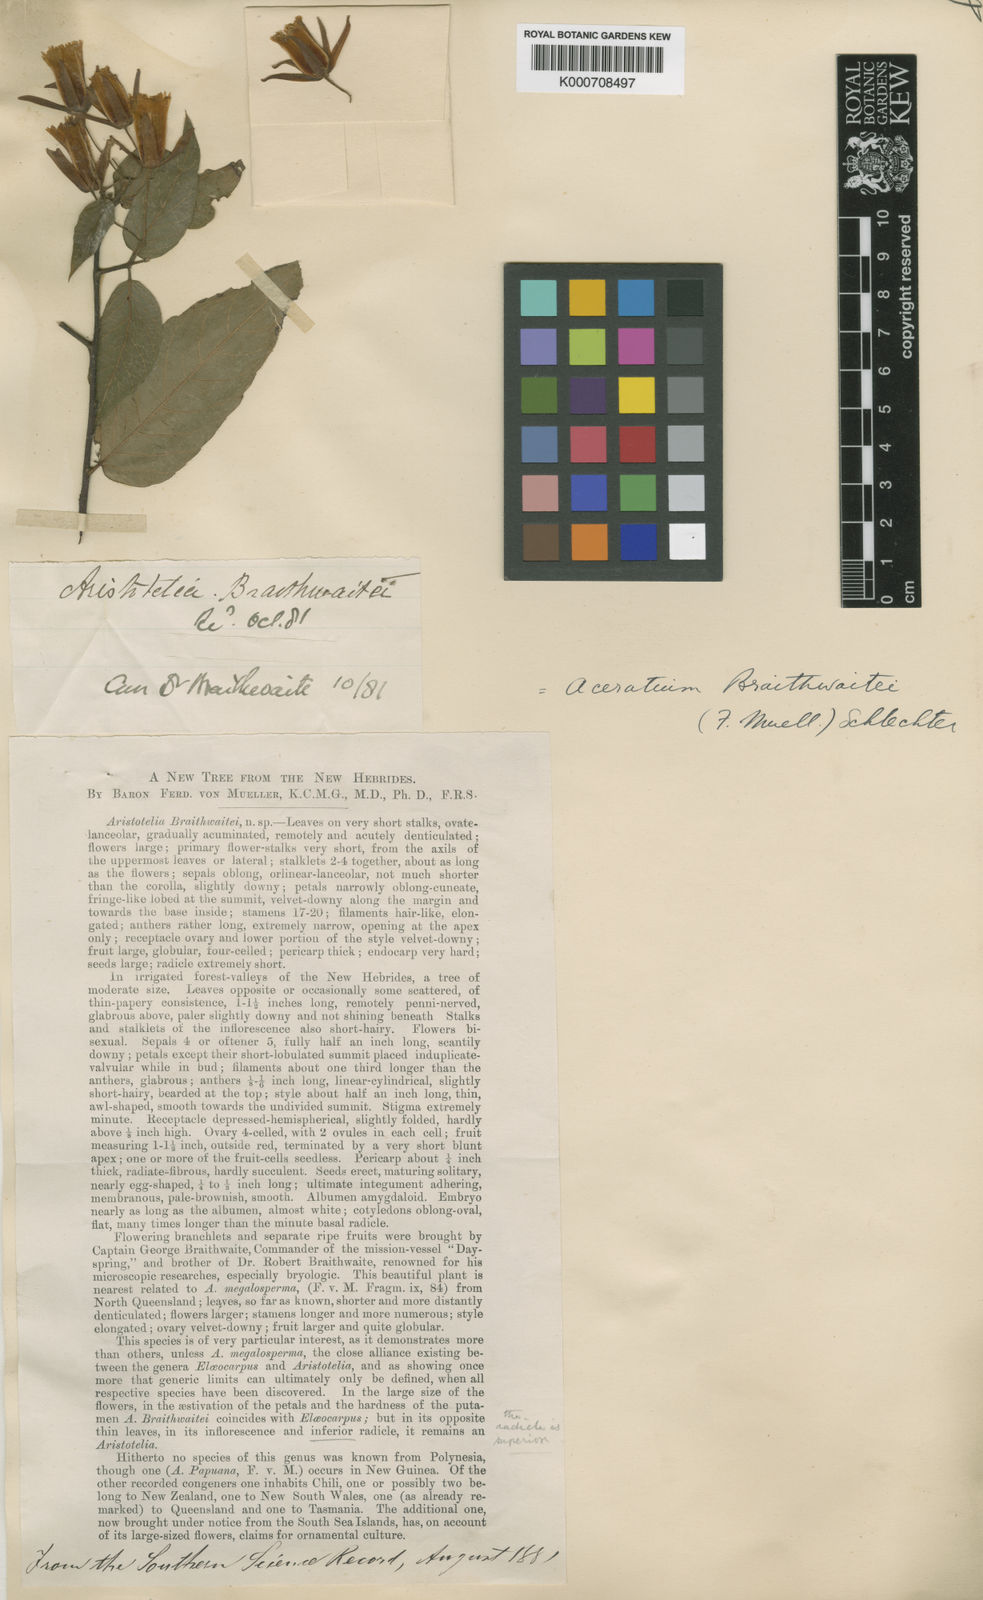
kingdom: Plantae
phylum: Tracheophyta
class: Magnoliopsida
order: Oxalidales
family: Elaeocarpaceae
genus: Aceratium
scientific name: Aceratium oppositifolium
